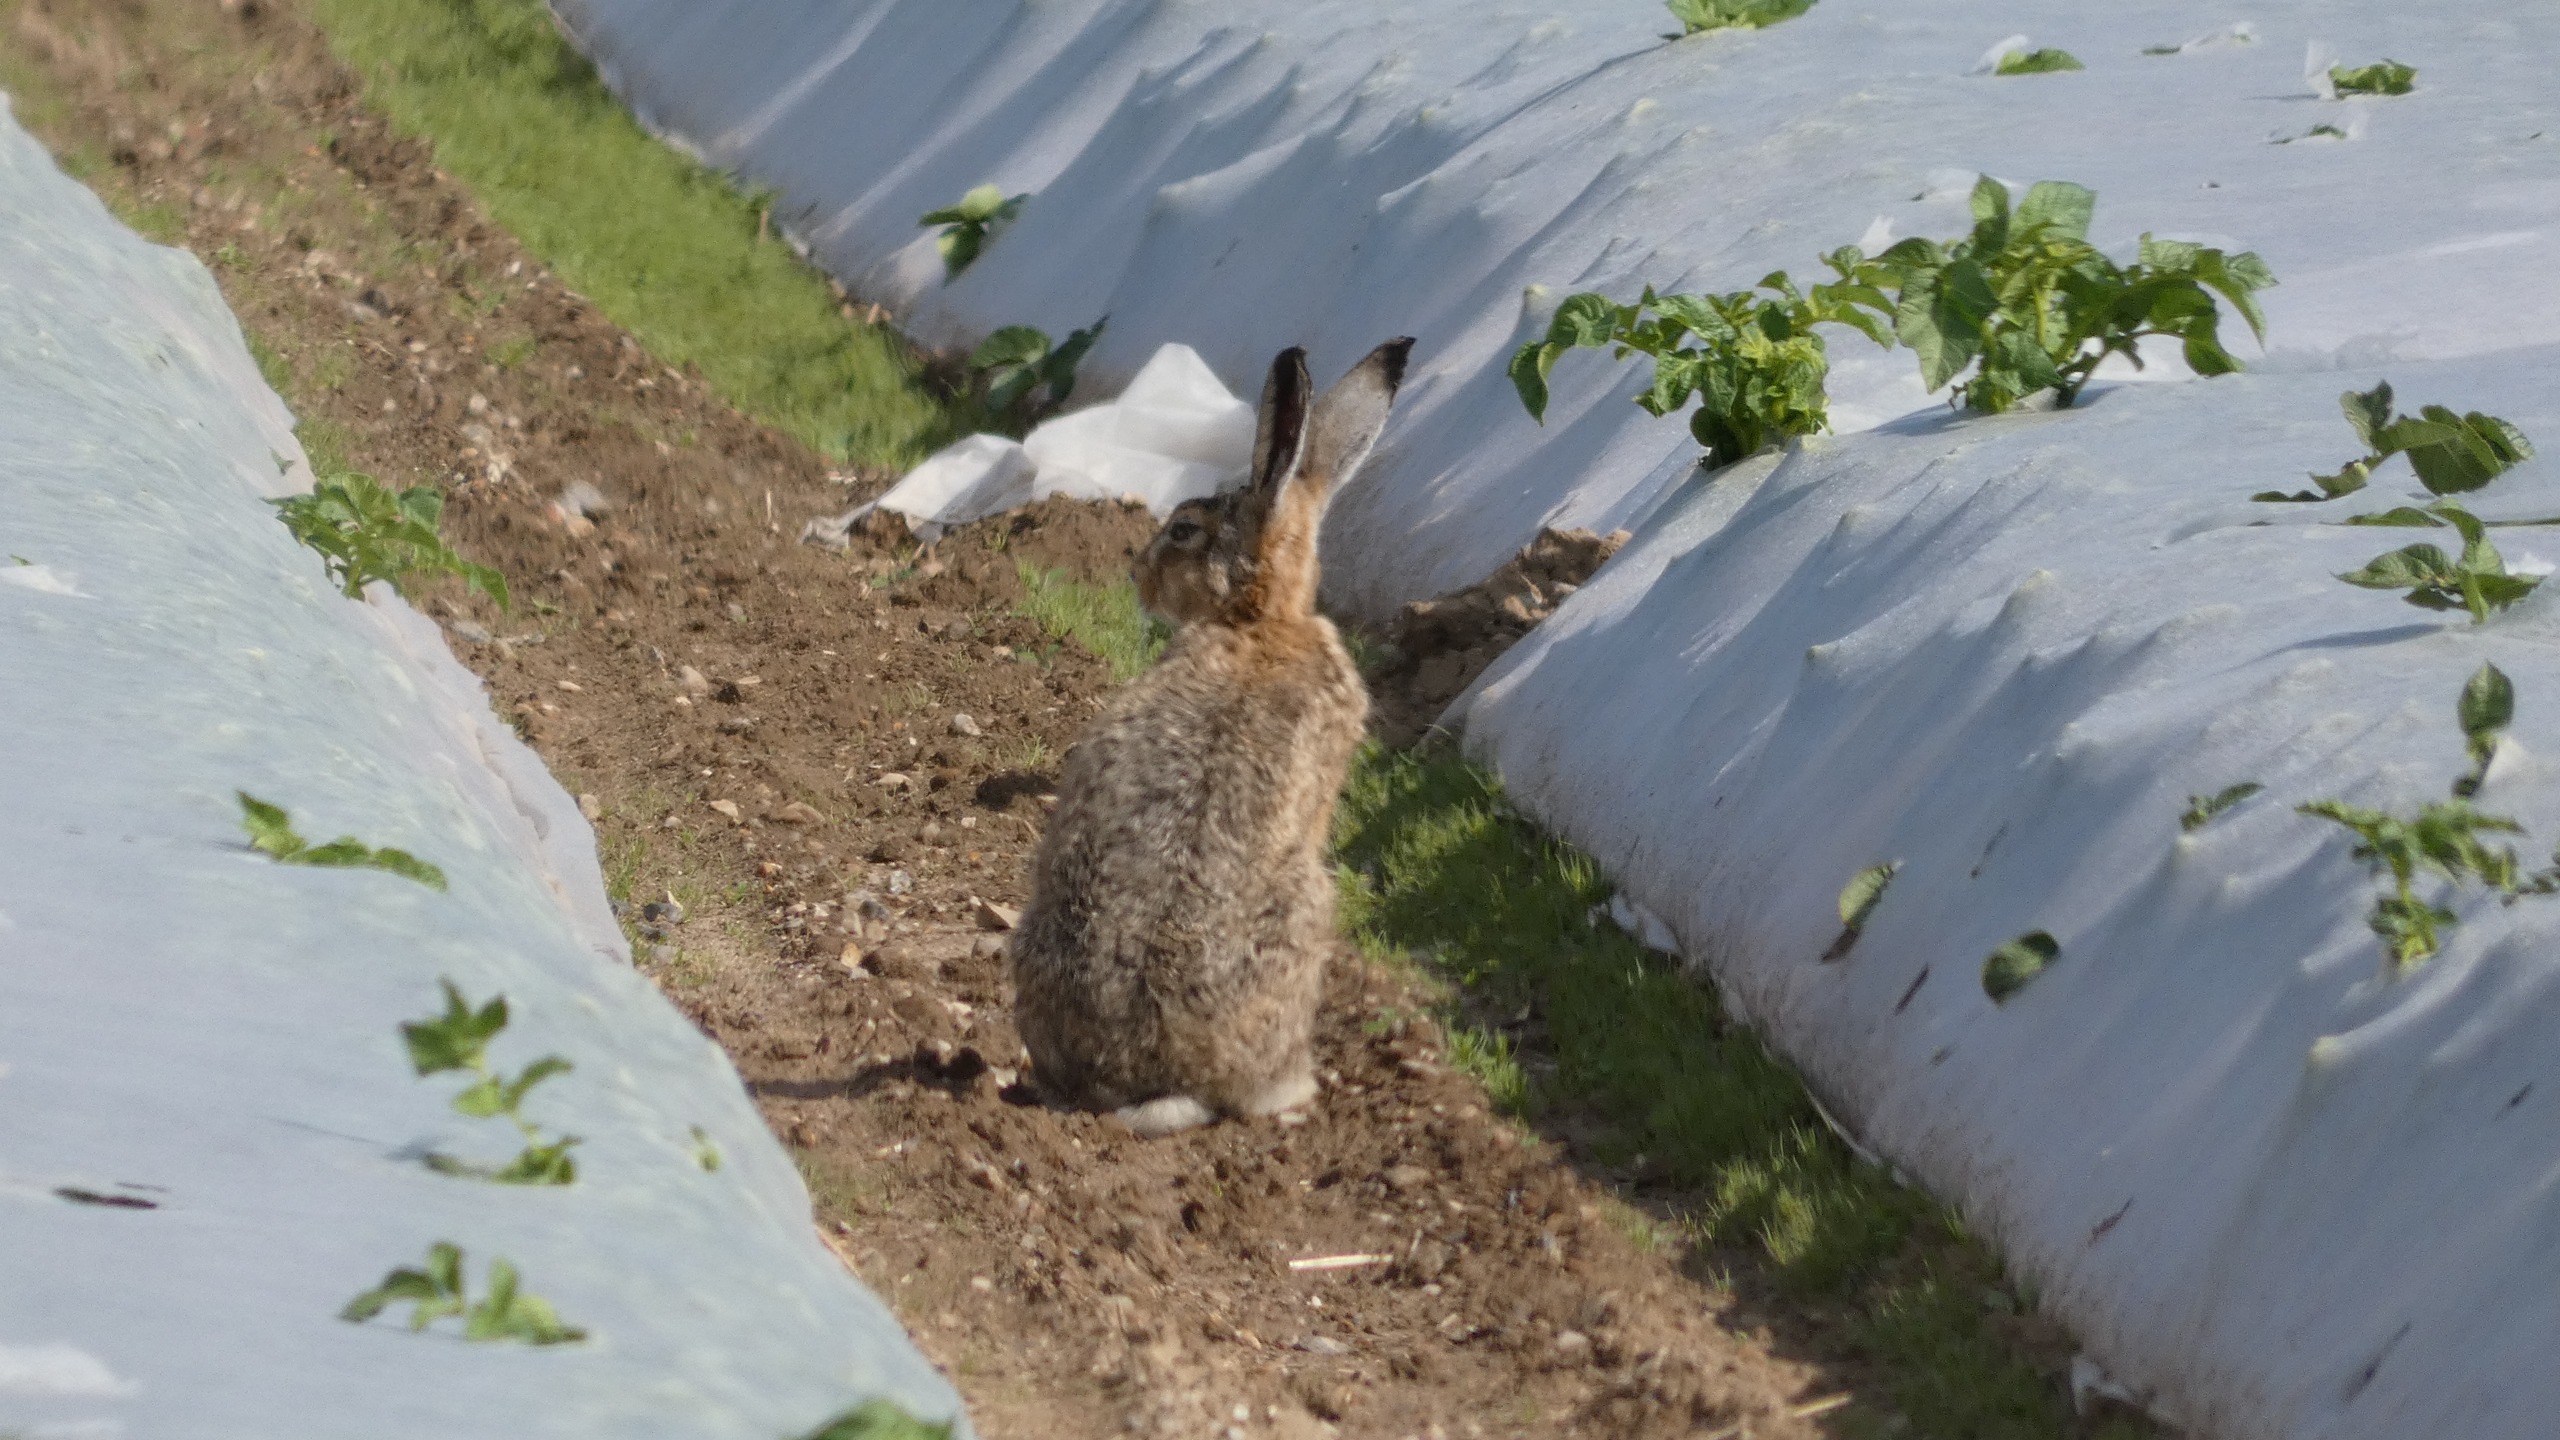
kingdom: Animalia
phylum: Chordata
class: Mammalia
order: Lagomorpha
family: Leporidae
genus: Lepus
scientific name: Lepus europaeus
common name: Hare
